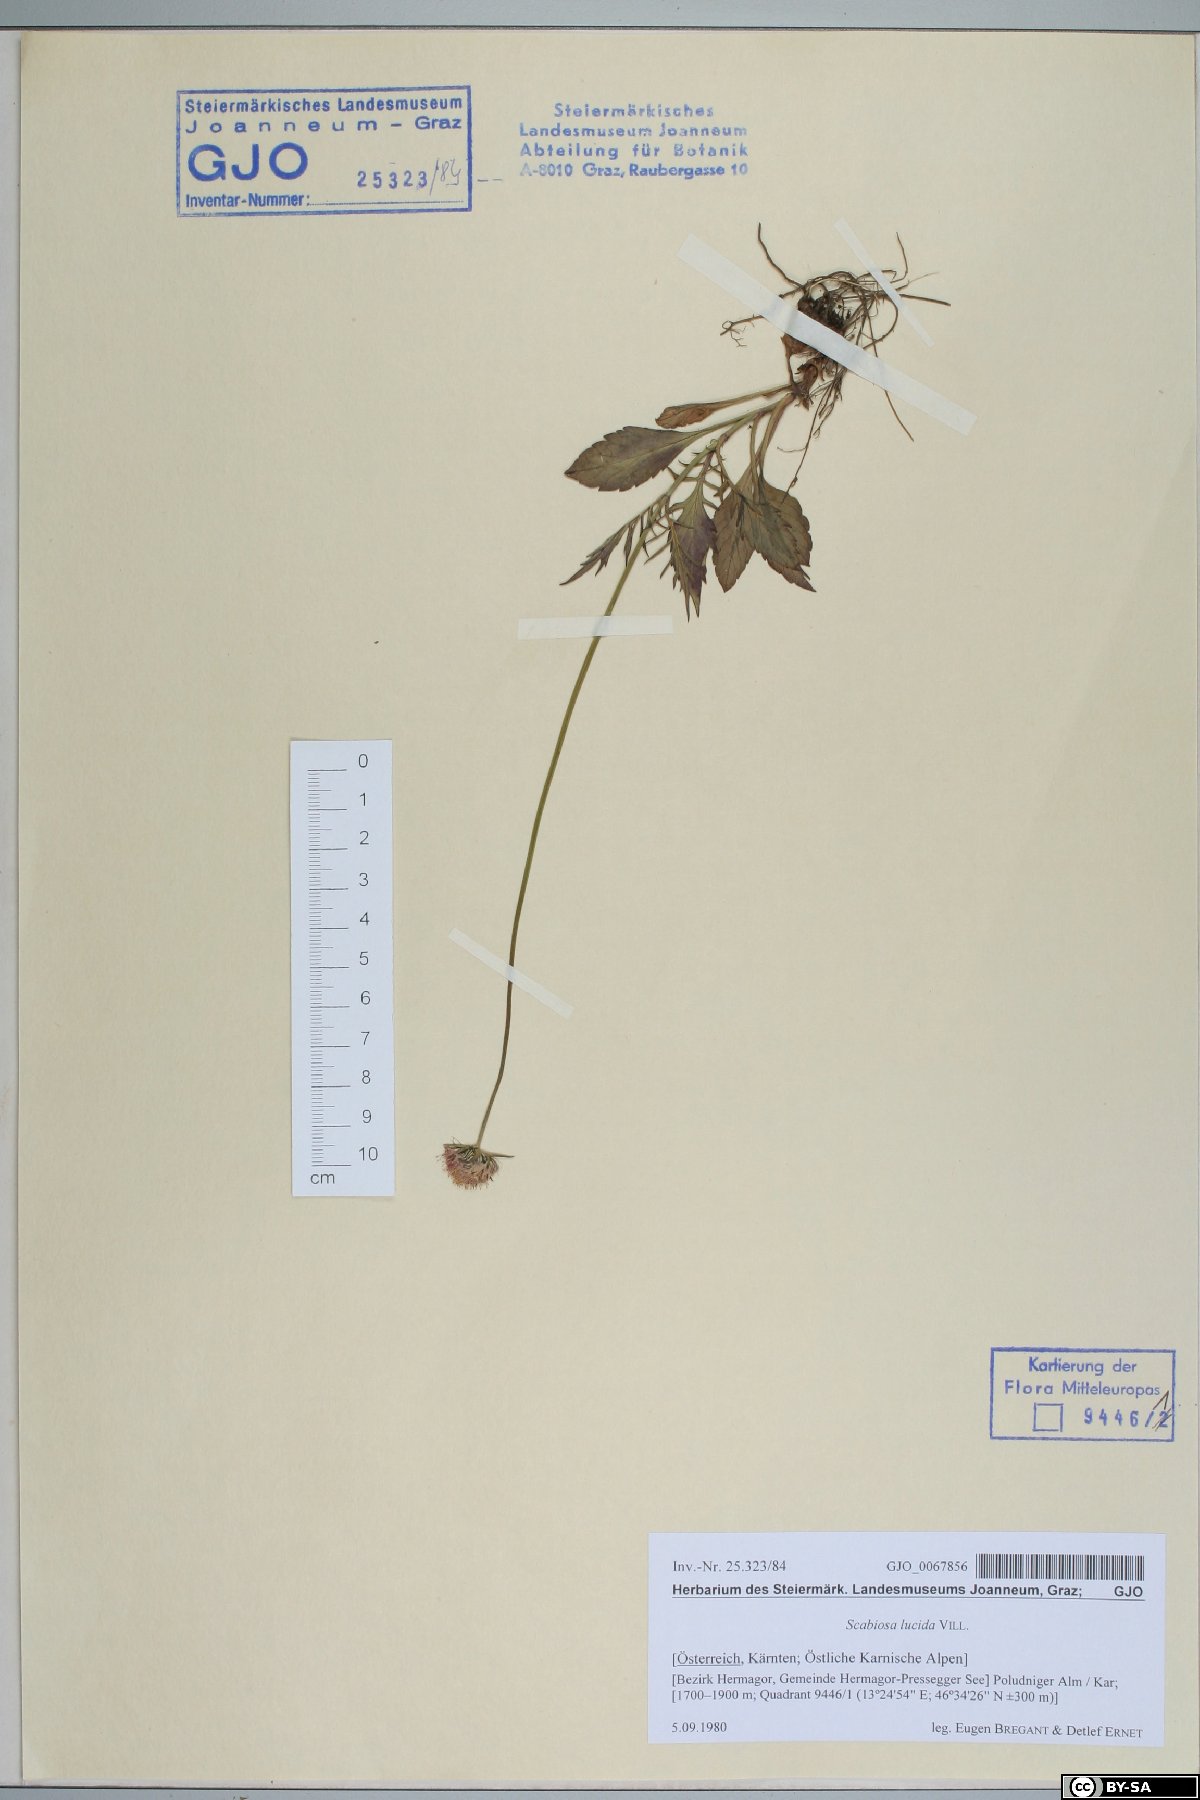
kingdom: Plantae
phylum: Tracheophyta
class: Magnoliopsida
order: Dipsacales
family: Caprifoliaceae
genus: Scabiosa
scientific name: Scabiosa lucida
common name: Shining scabious
